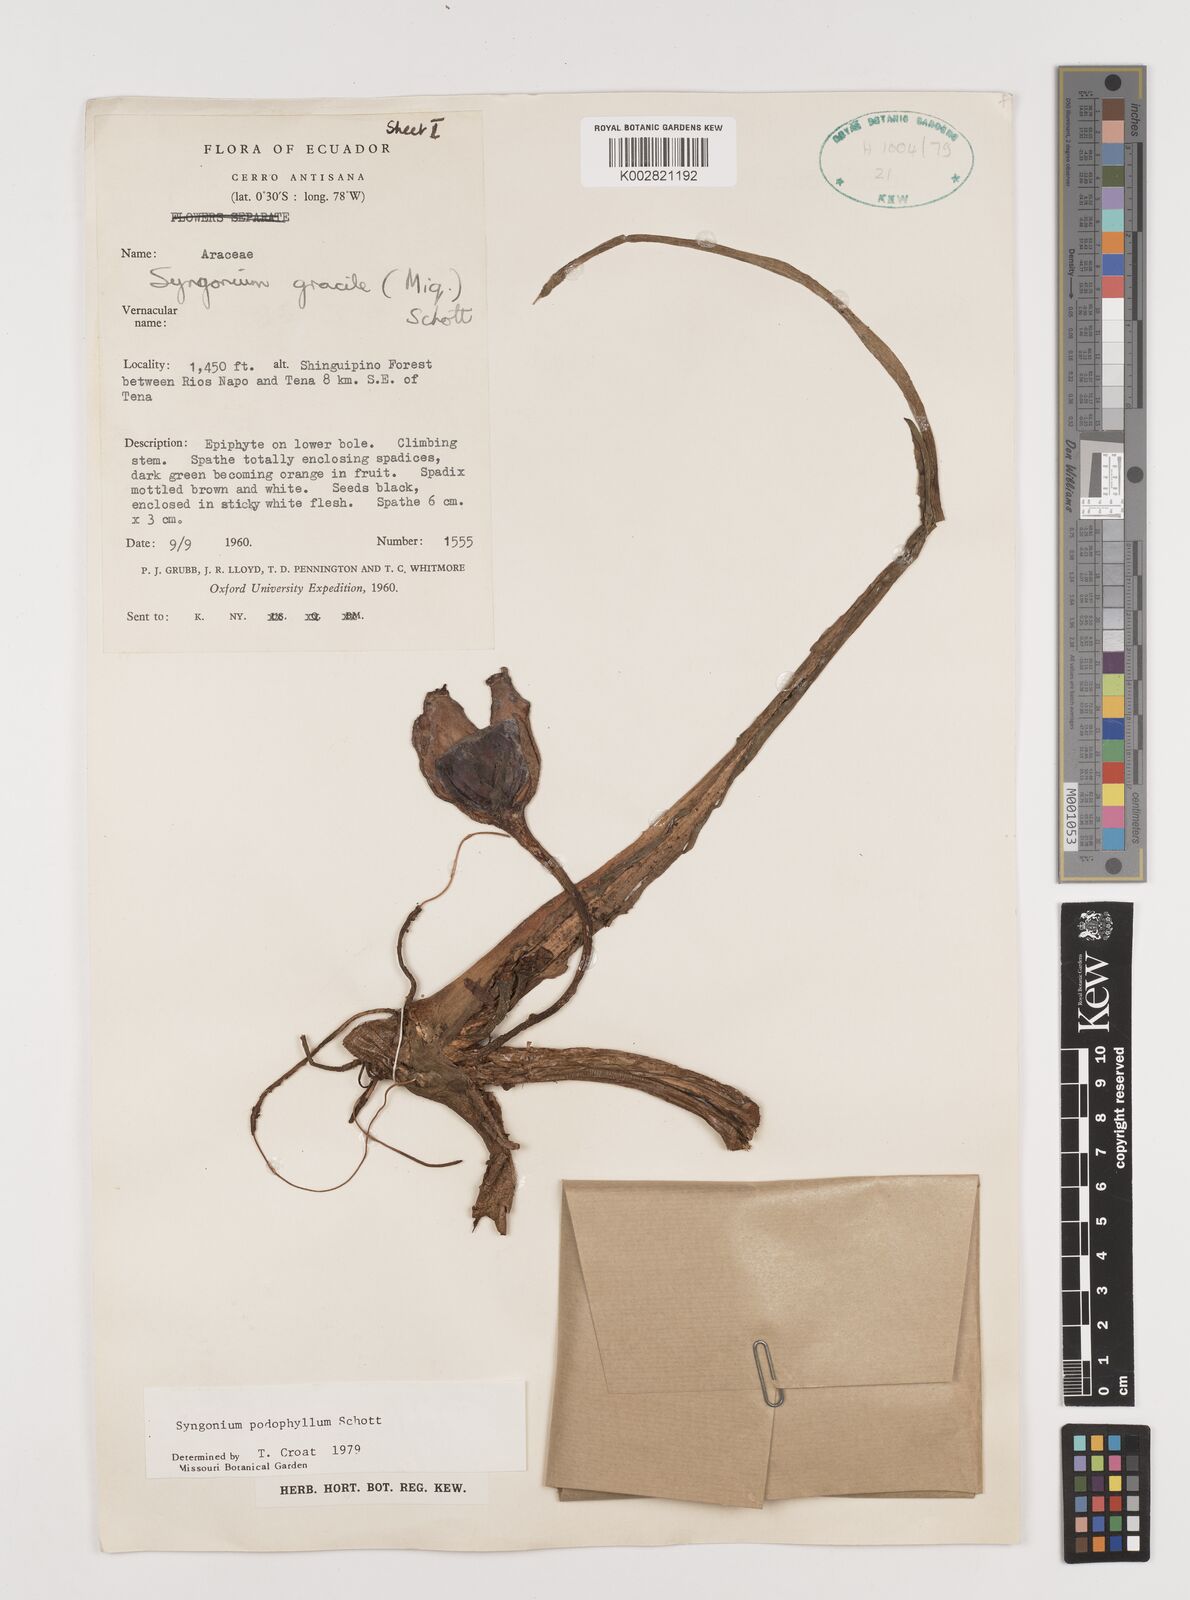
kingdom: Plantae
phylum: Tracheophyta
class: Liliopsida
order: Alismatales
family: Araceae
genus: Syngonium
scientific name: Syngonium podophyllum
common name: American evergreen
